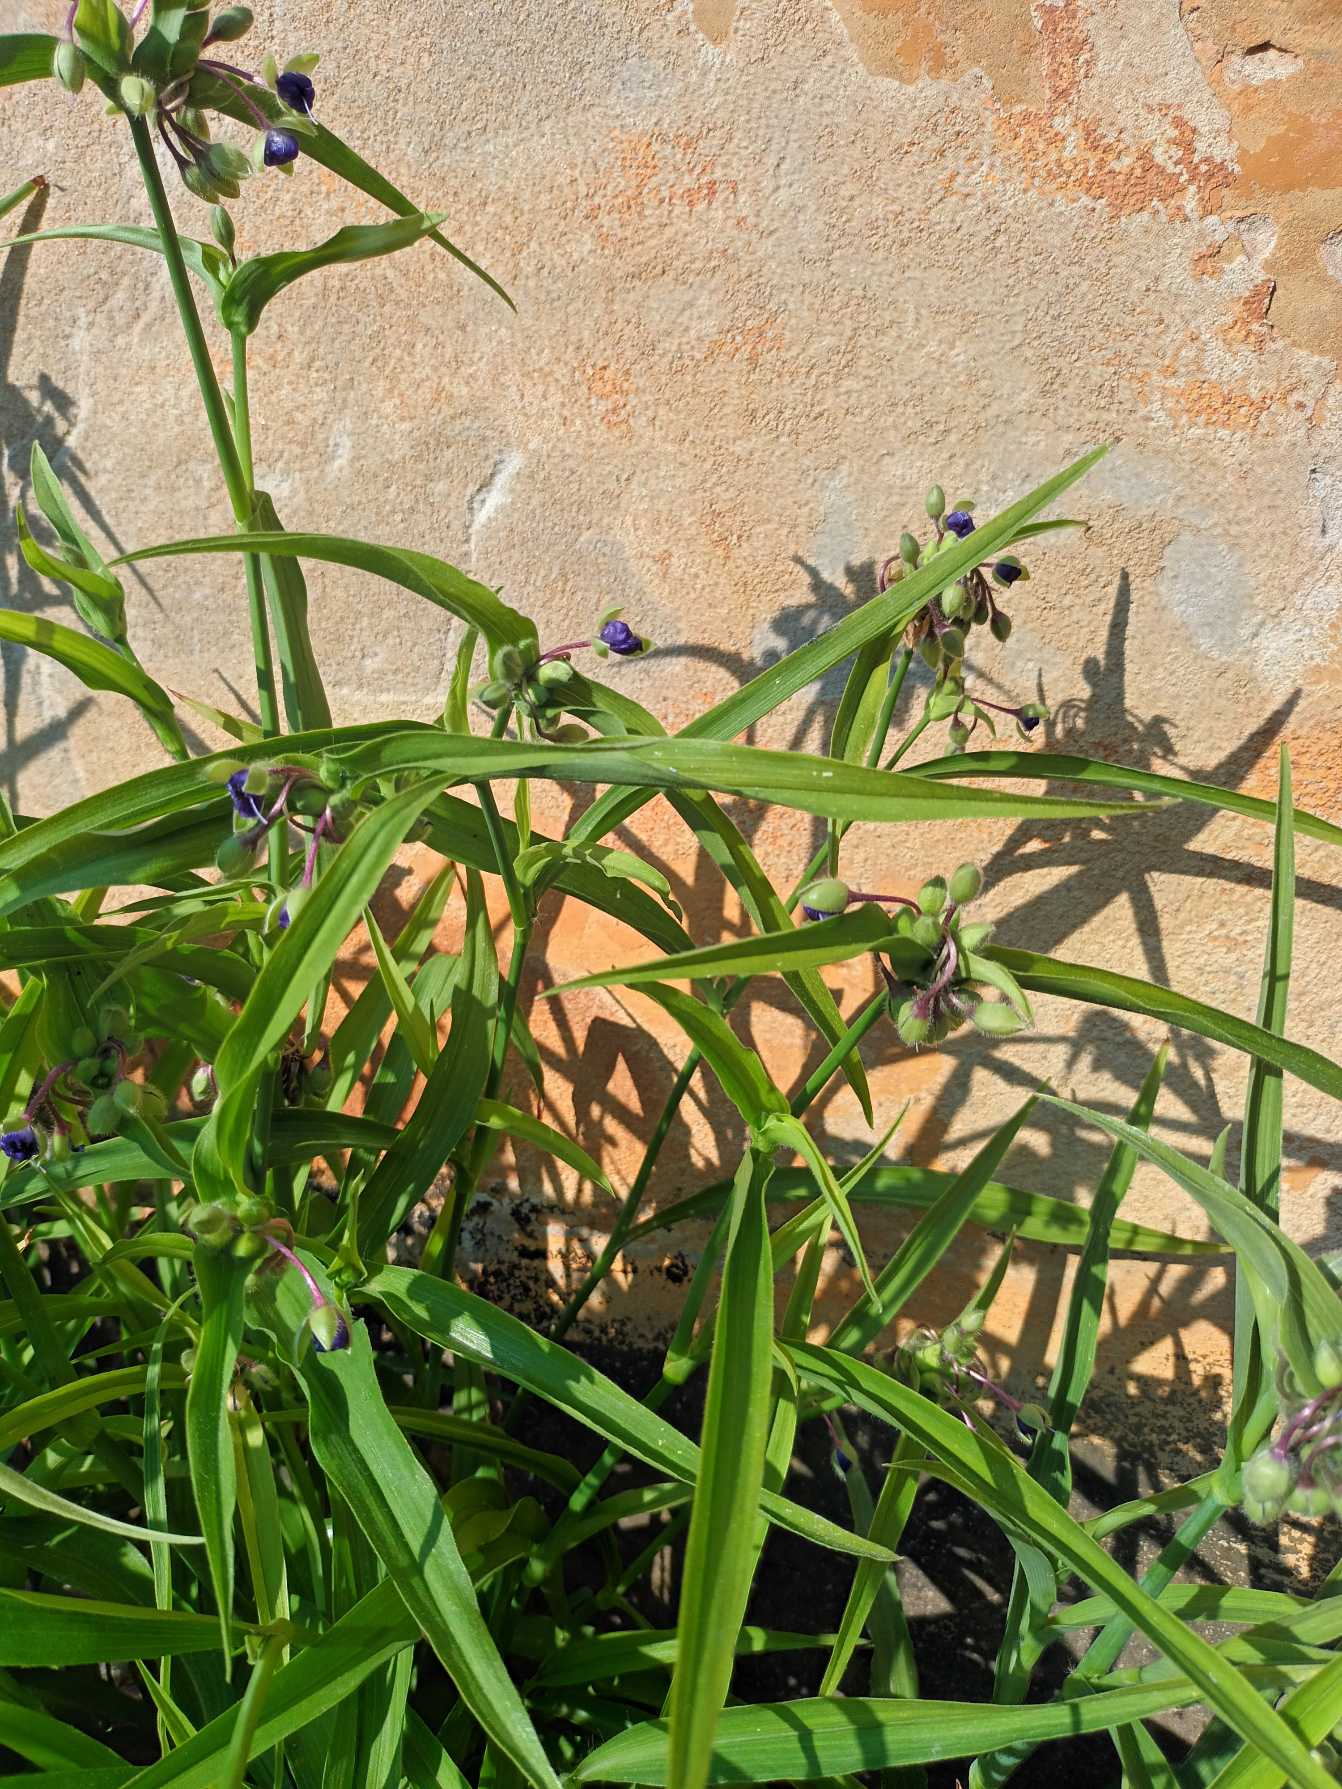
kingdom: Plantae
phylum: Tracheophyta
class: Liliopsida
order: Commelinales
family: Commelinaceae
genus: Tradescantia
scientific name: Tradescantia virginiana
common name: Blomsterjøde
